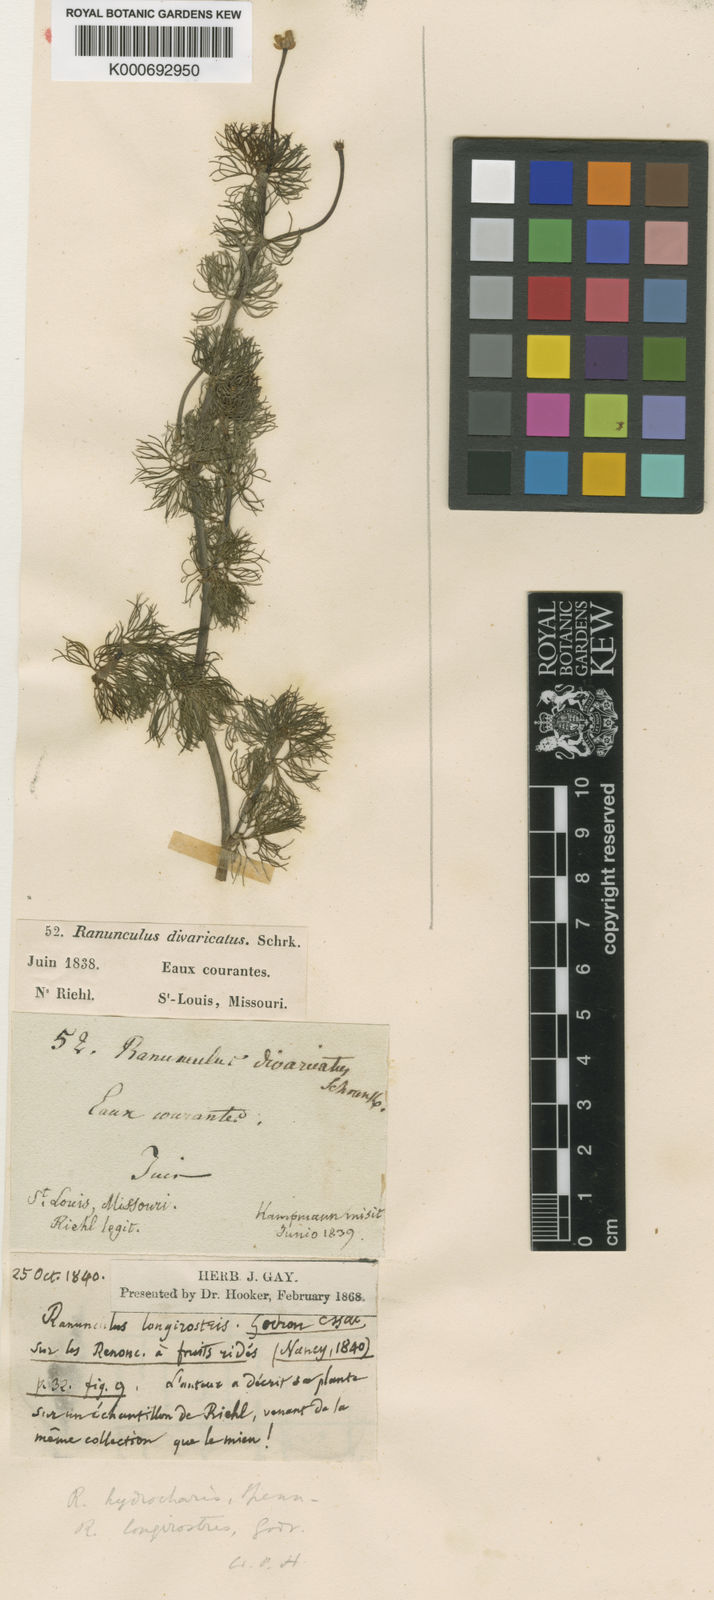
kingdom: Plantae
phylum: Tracheophyta
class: Magnoliopsida
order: Ranunculales
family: Ranunculaceae
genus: Ranunculus
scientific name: Ranunculus circinatus
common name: Fan-leaved water-crowfoot
